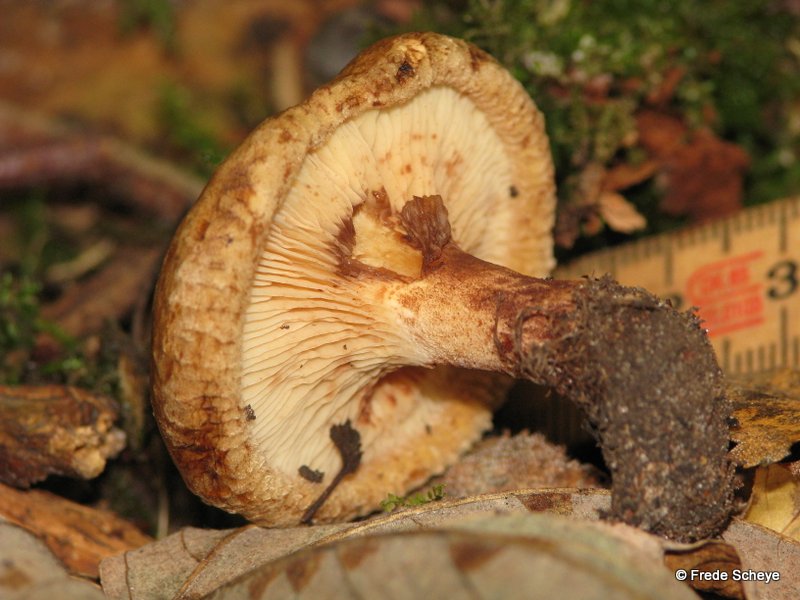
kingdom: Fungi
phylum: Basidiomycota
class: Agaricomycetes
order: Boletales
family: Paxillaceae
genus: Paxillus
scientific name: Paxillus involutus
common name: almindelig netbladhat
